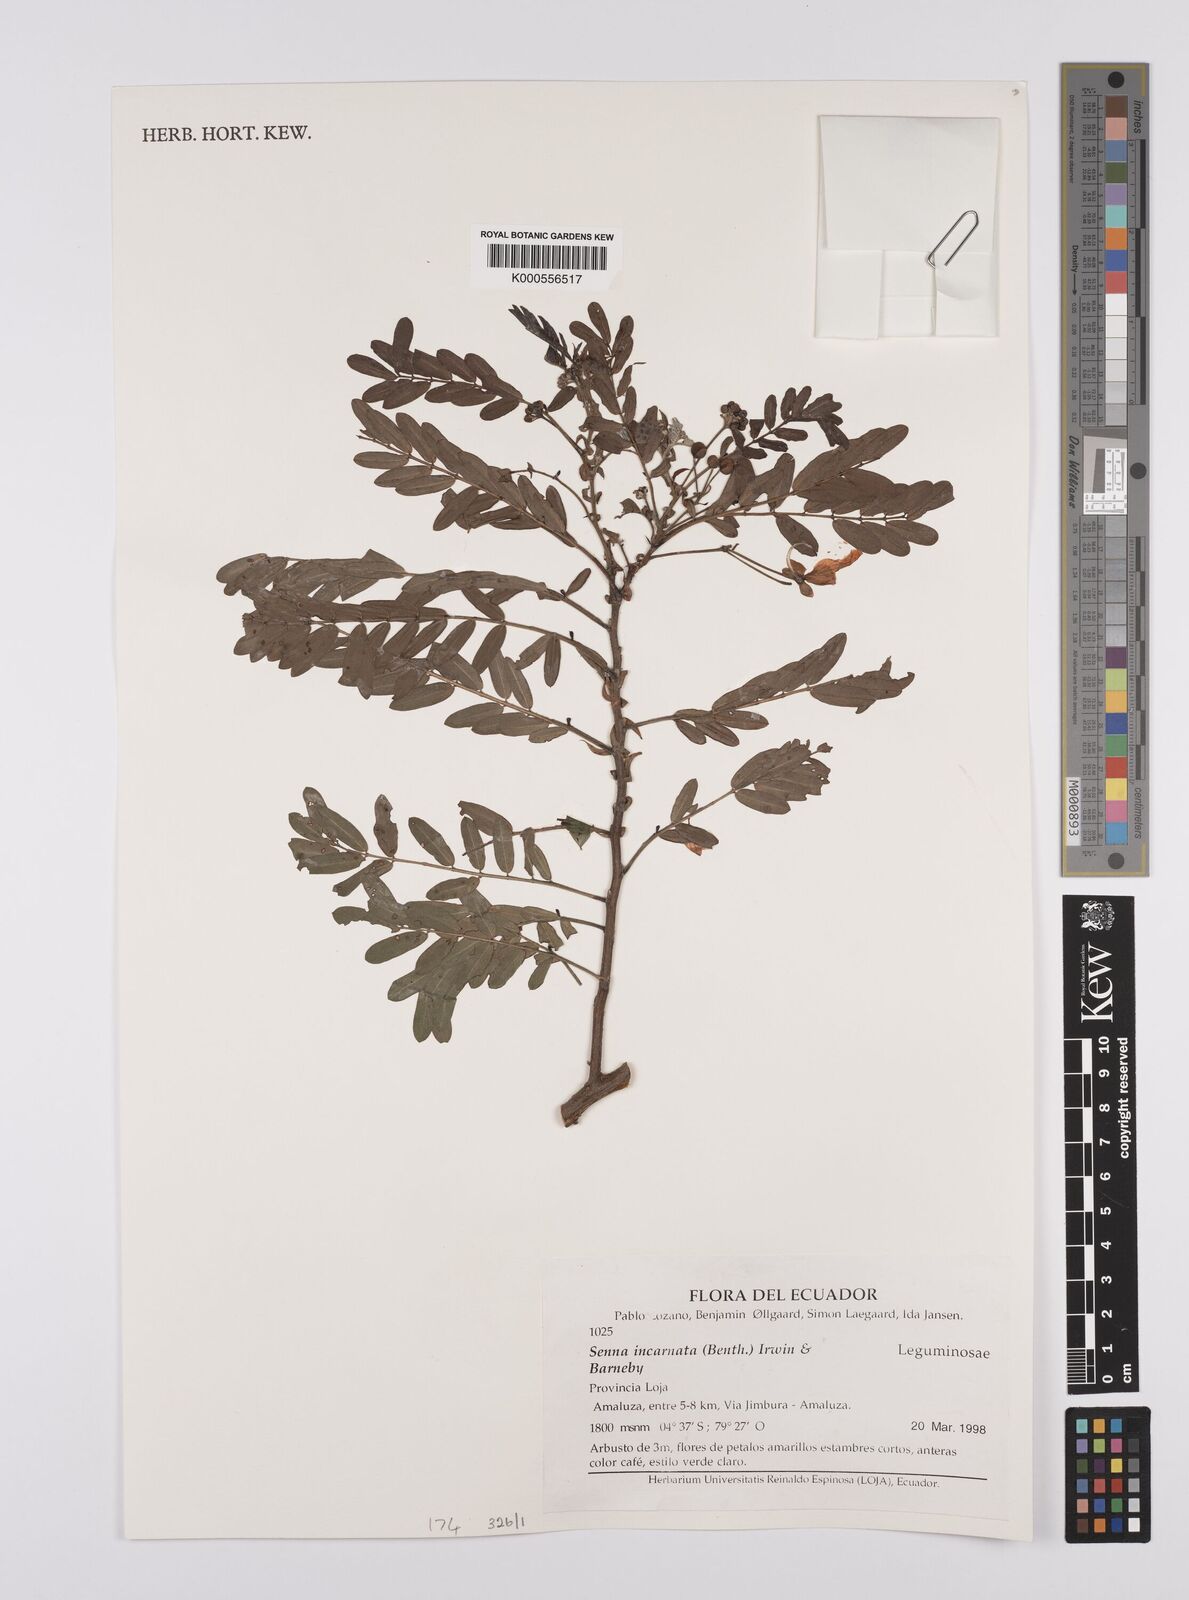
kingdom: Plantae
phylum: Tracheophyta
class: Magnoliopsida
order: Fabales
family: Fabaceae
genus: Senna
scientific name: Senna incarnata
